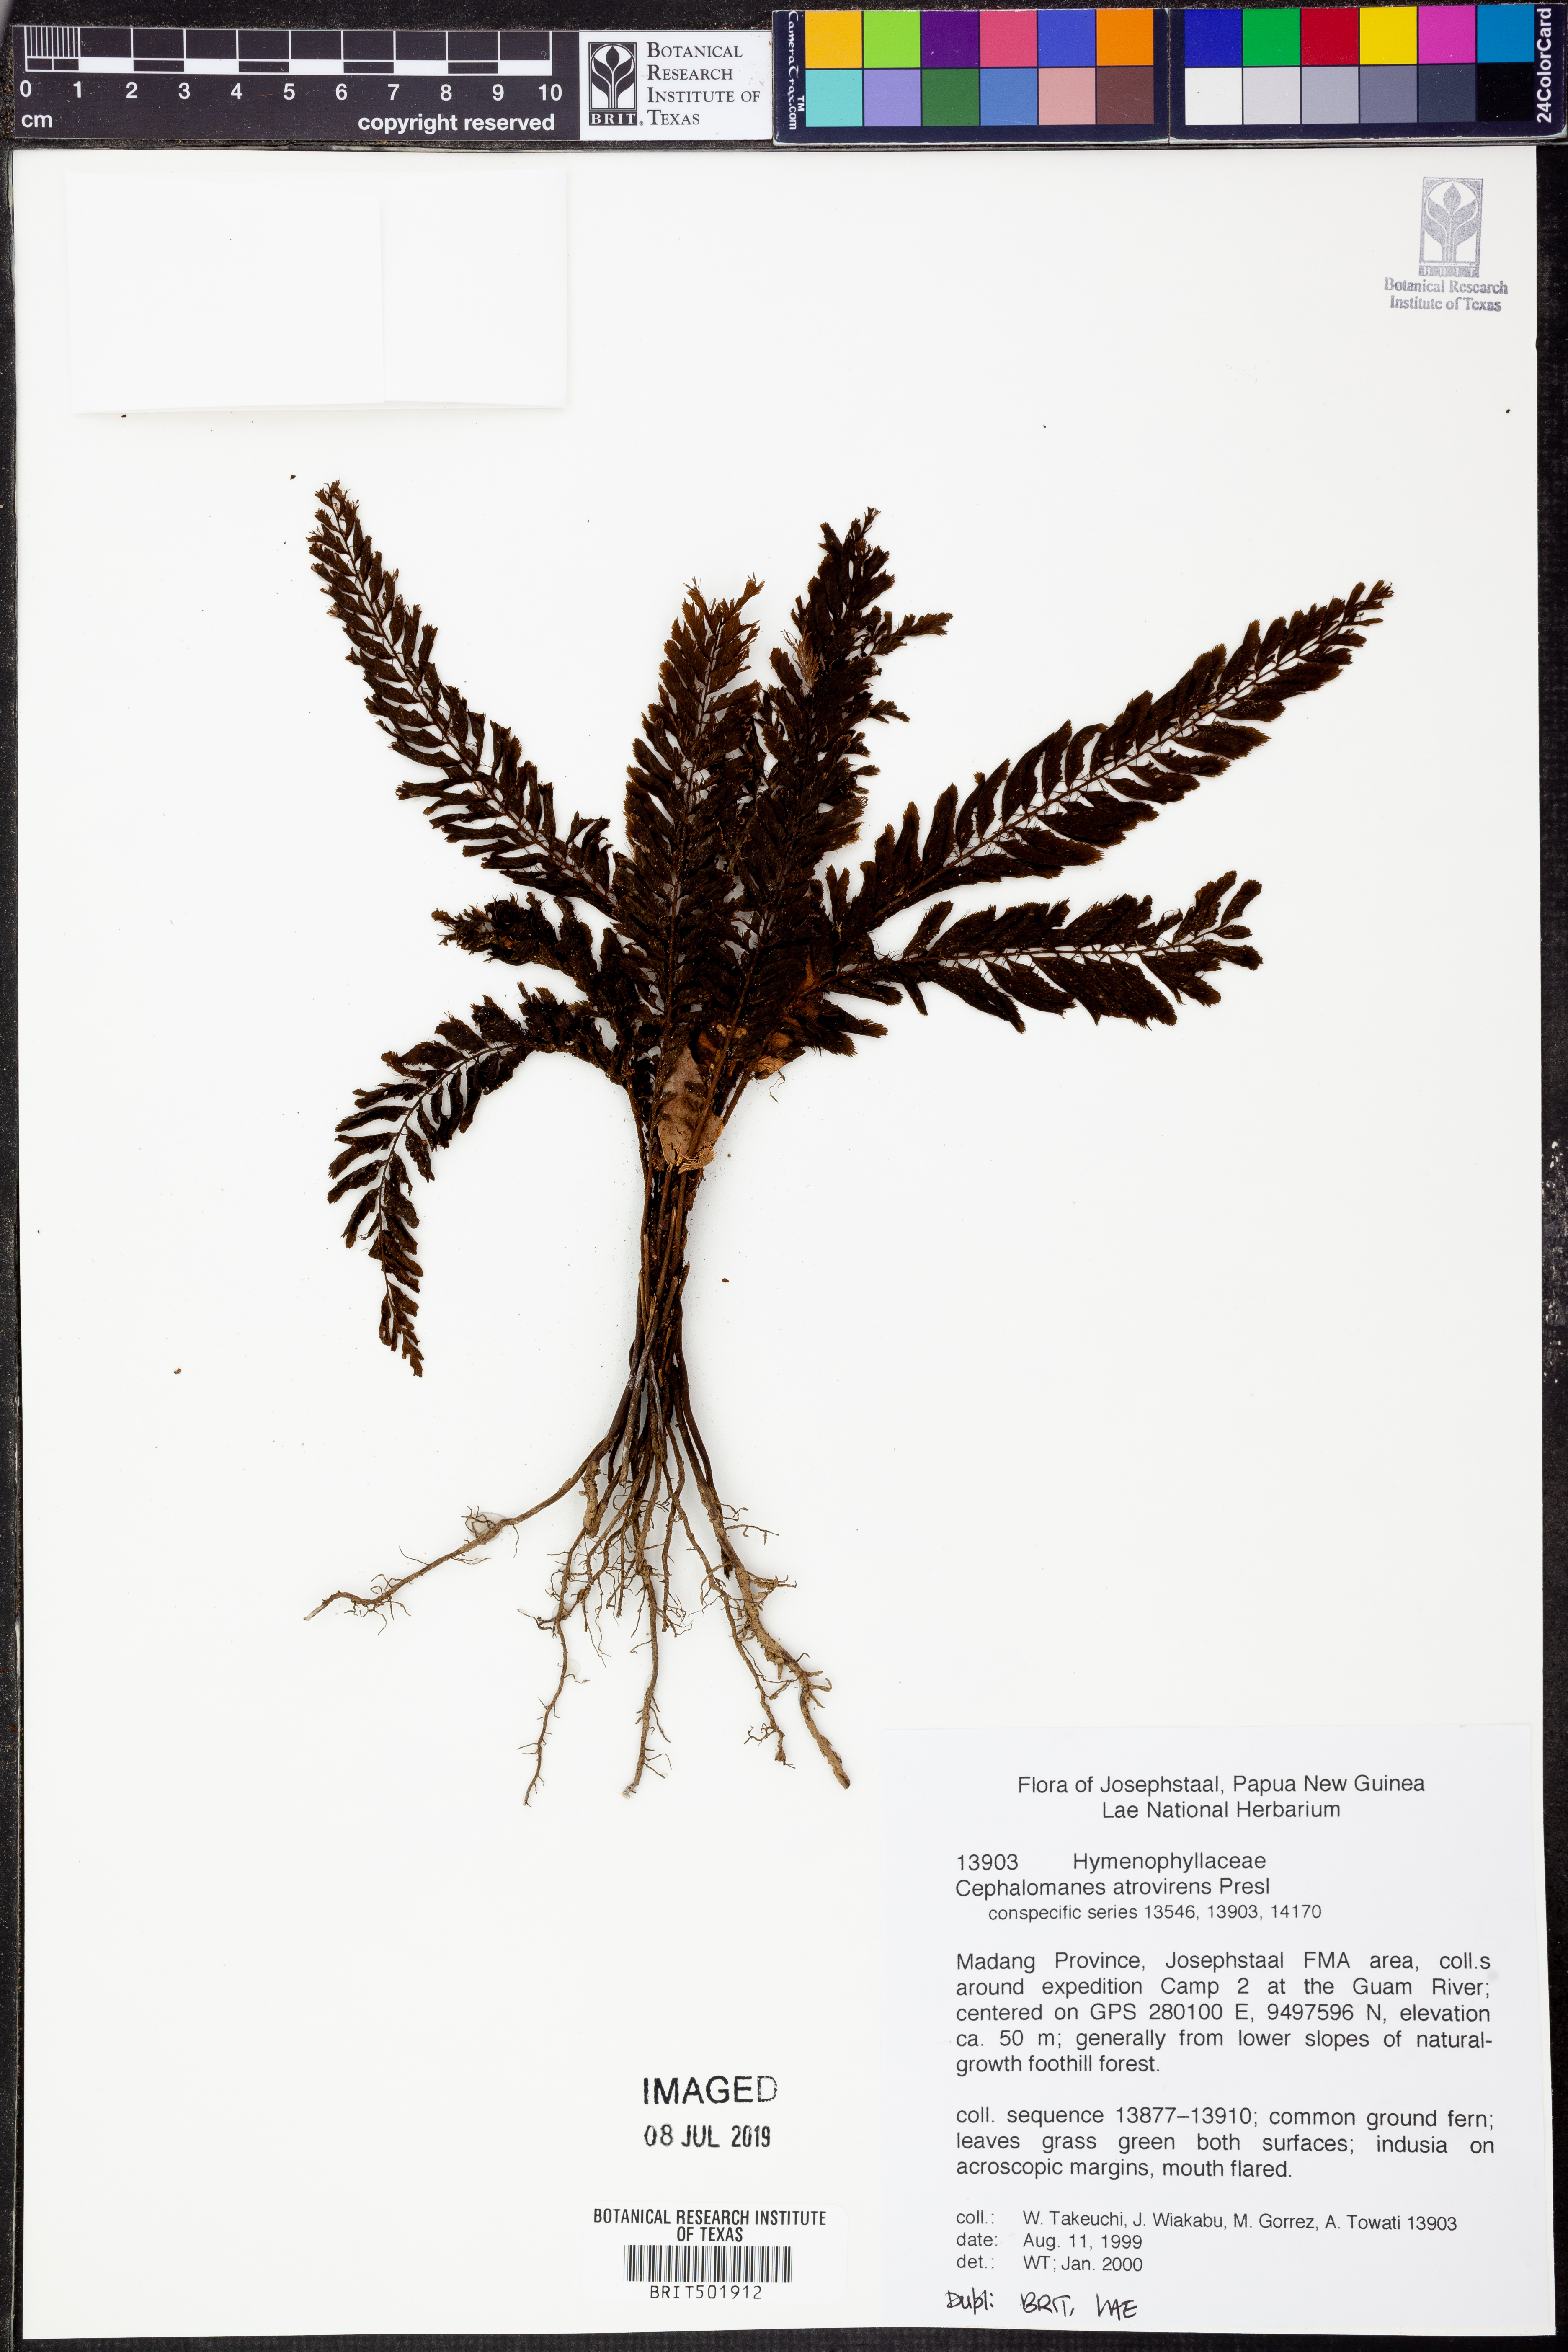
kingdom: Plantae
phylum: Tracheophyta
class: Polypodiopsida
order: Hymenophyllales
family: Hymenophyllaceae
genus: Cephalomanes
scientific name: Cephalomanes atrovirens
